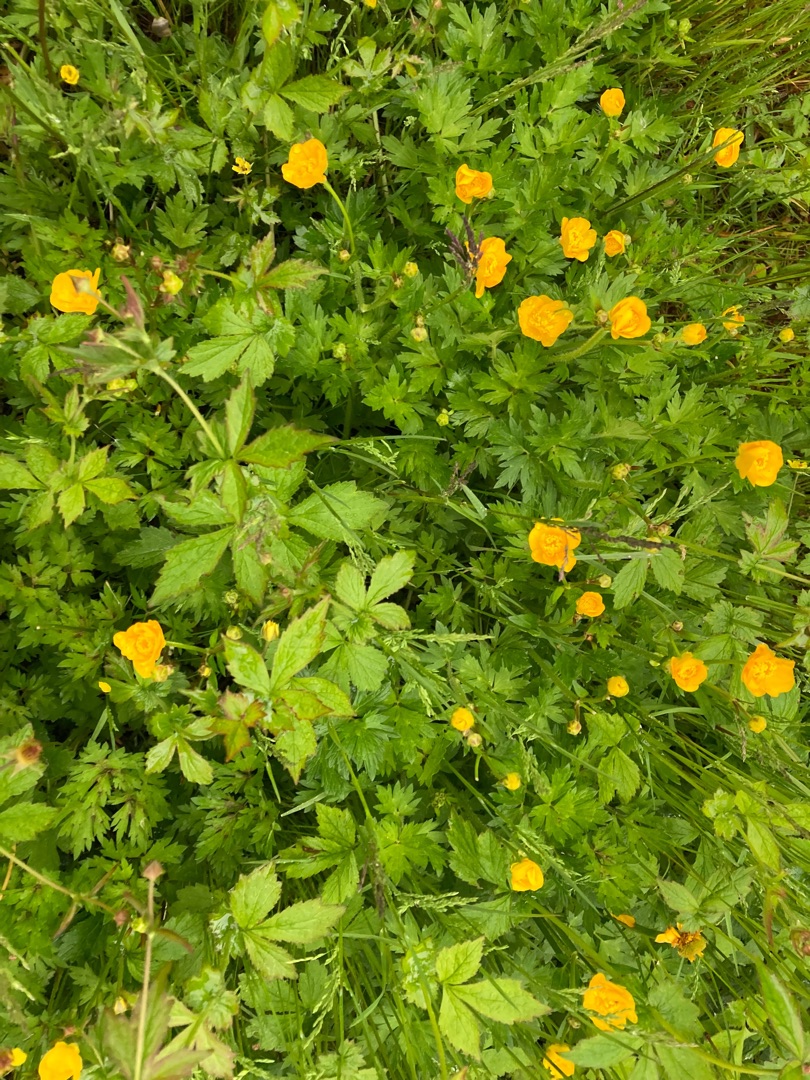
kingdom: Plantae
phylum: Tracheophyta
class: Magnoliopsida
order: Ranunculales
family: Ranunculaceae
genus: Ranunculus
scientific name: Ranunculus repens
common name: Lav ranunkel
